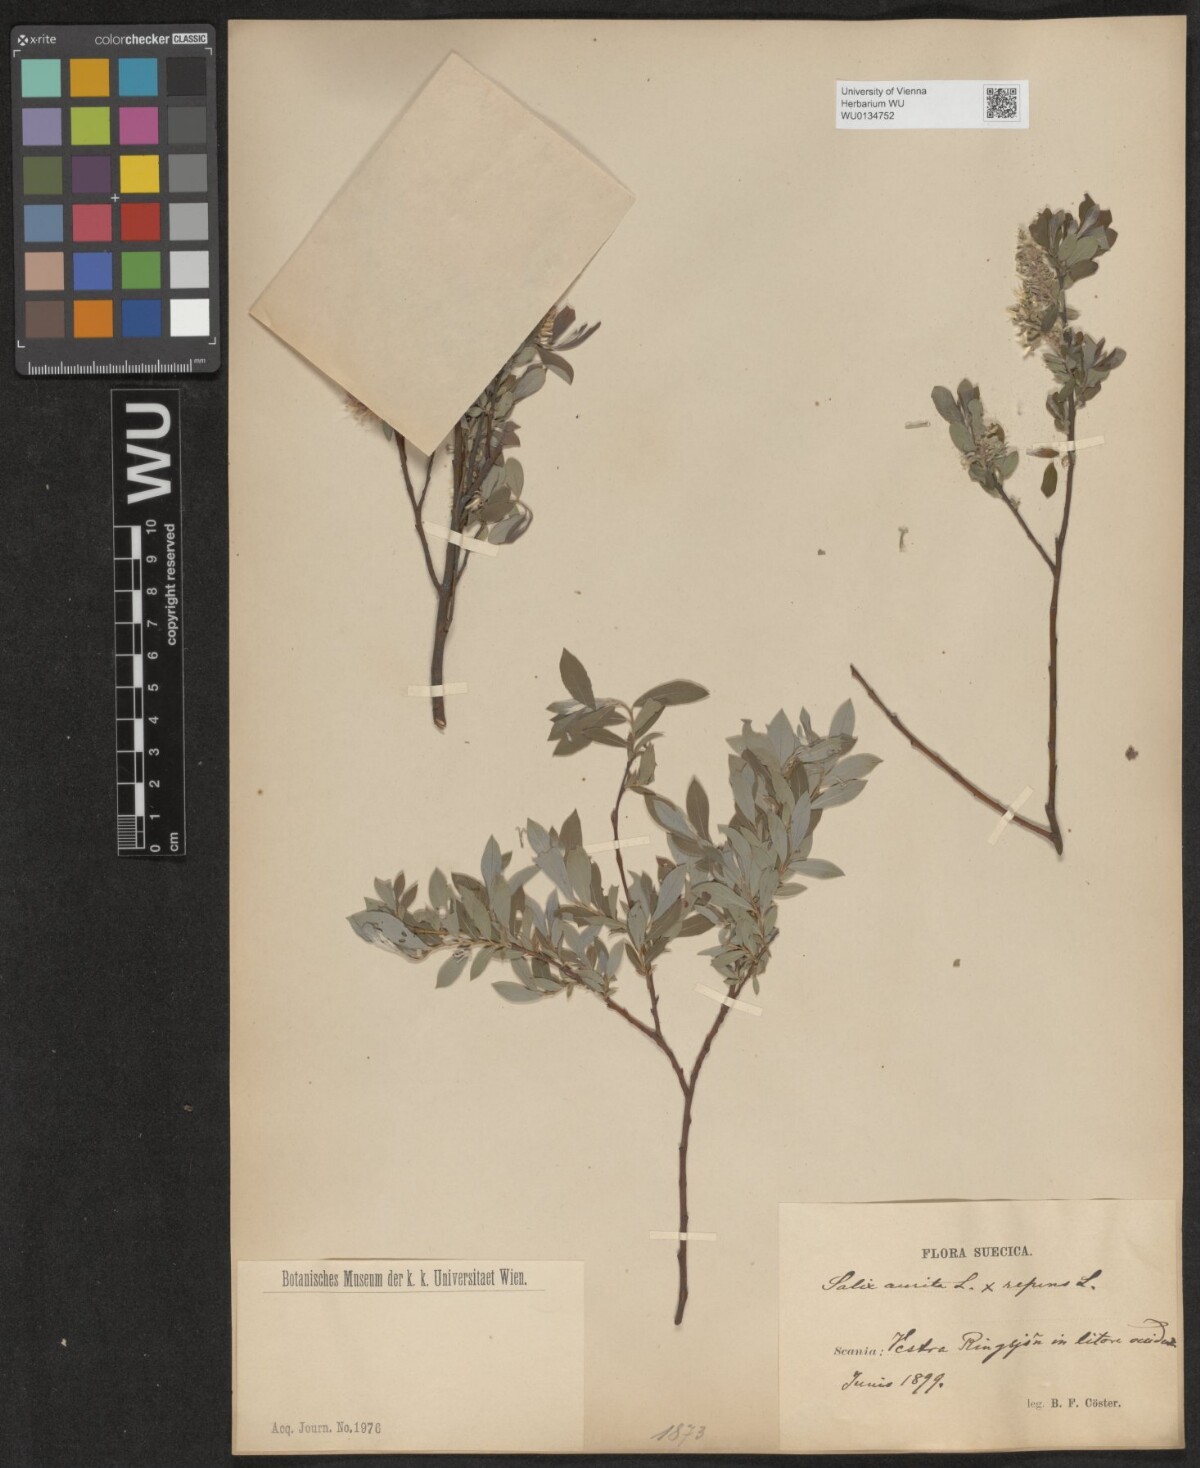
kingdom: Plantae
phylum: Tracheophyta
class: Magnoliopsida
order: Malpighiales
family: Salicaceae
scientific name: Salicaceae
